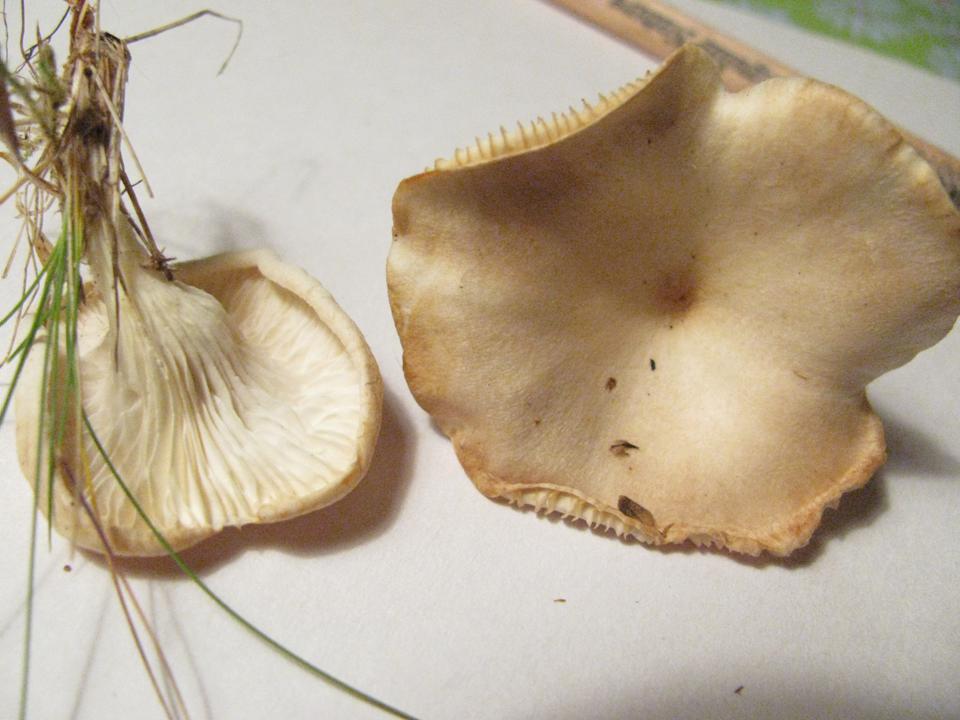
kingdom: Fungi
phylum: Basidiomycota
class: Agaricomycetes
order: Agaricales
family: Tricholomataceae
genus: Infundibulicybe
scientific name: Infundibulicybe gibba
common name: almindelig tragthat
